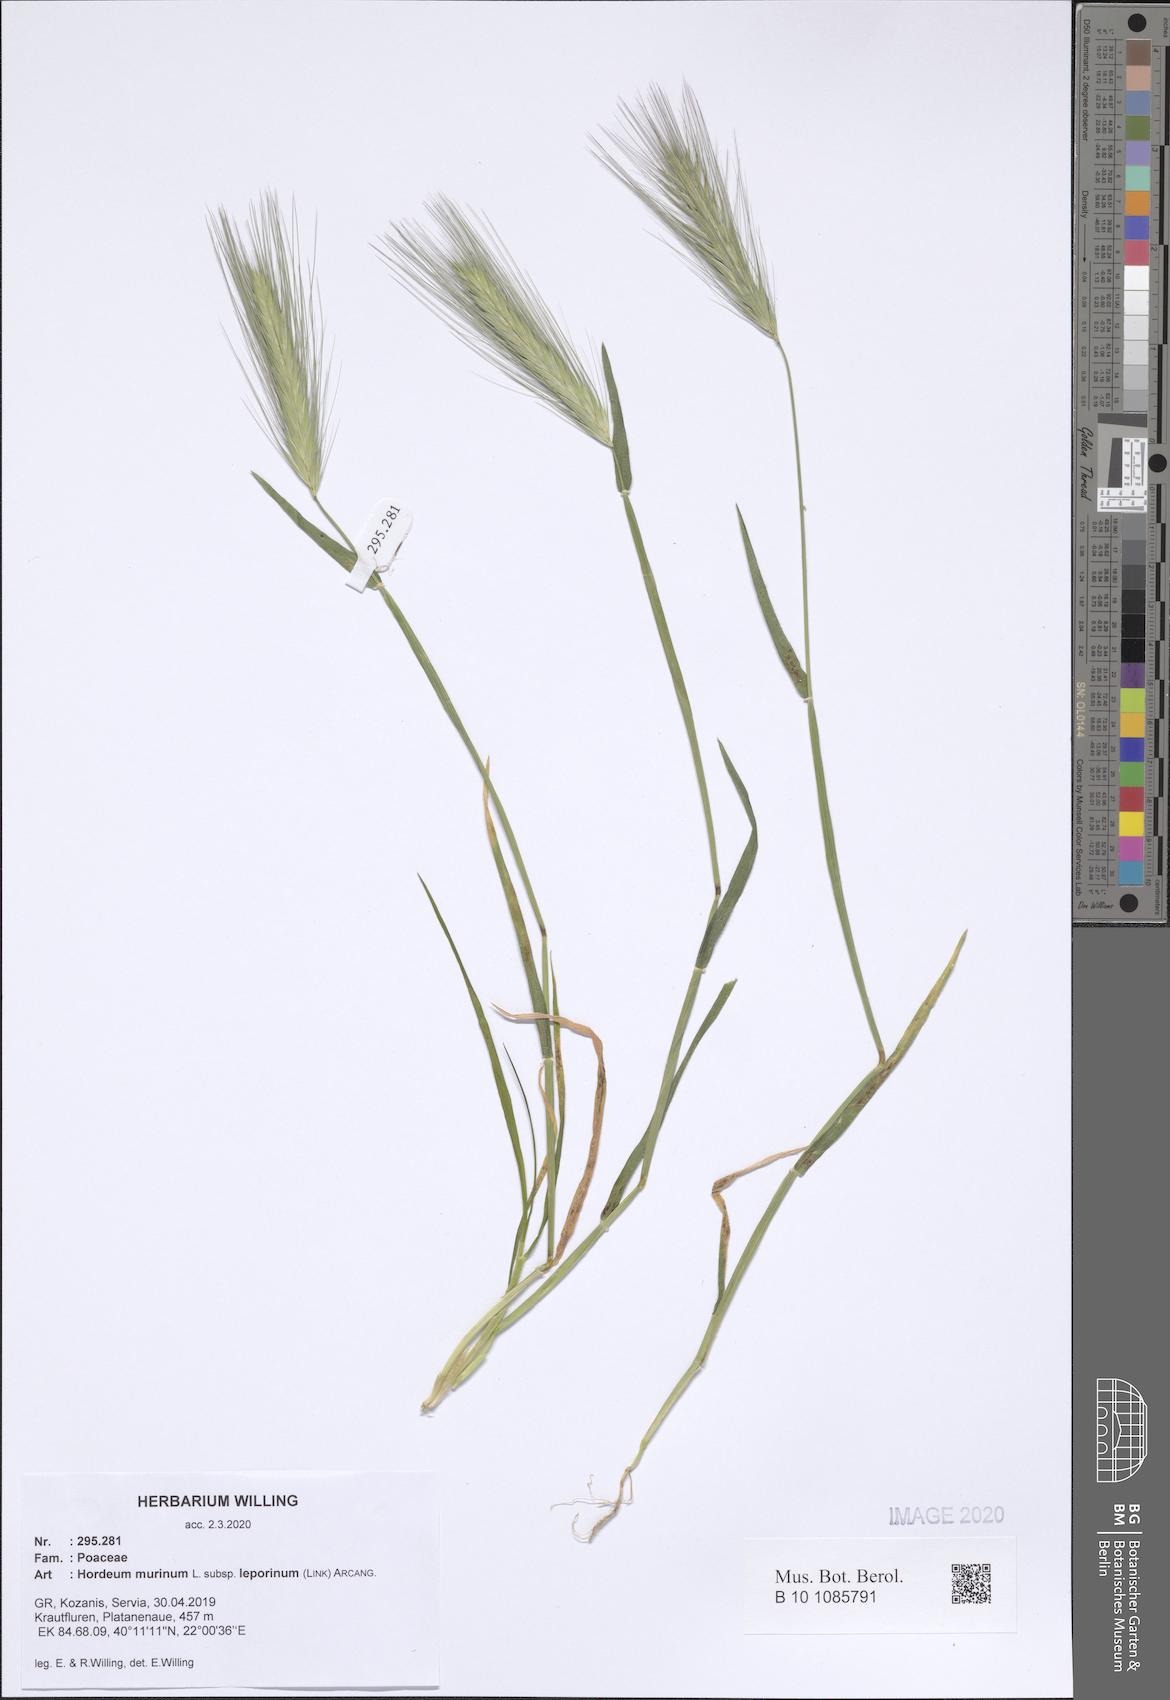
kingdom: Plantae
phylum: Tracheophyta
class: Liliopsida
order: Poales
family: Poaceae
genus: Hordeum
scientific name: Hordeum murinum
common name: Wall barley
